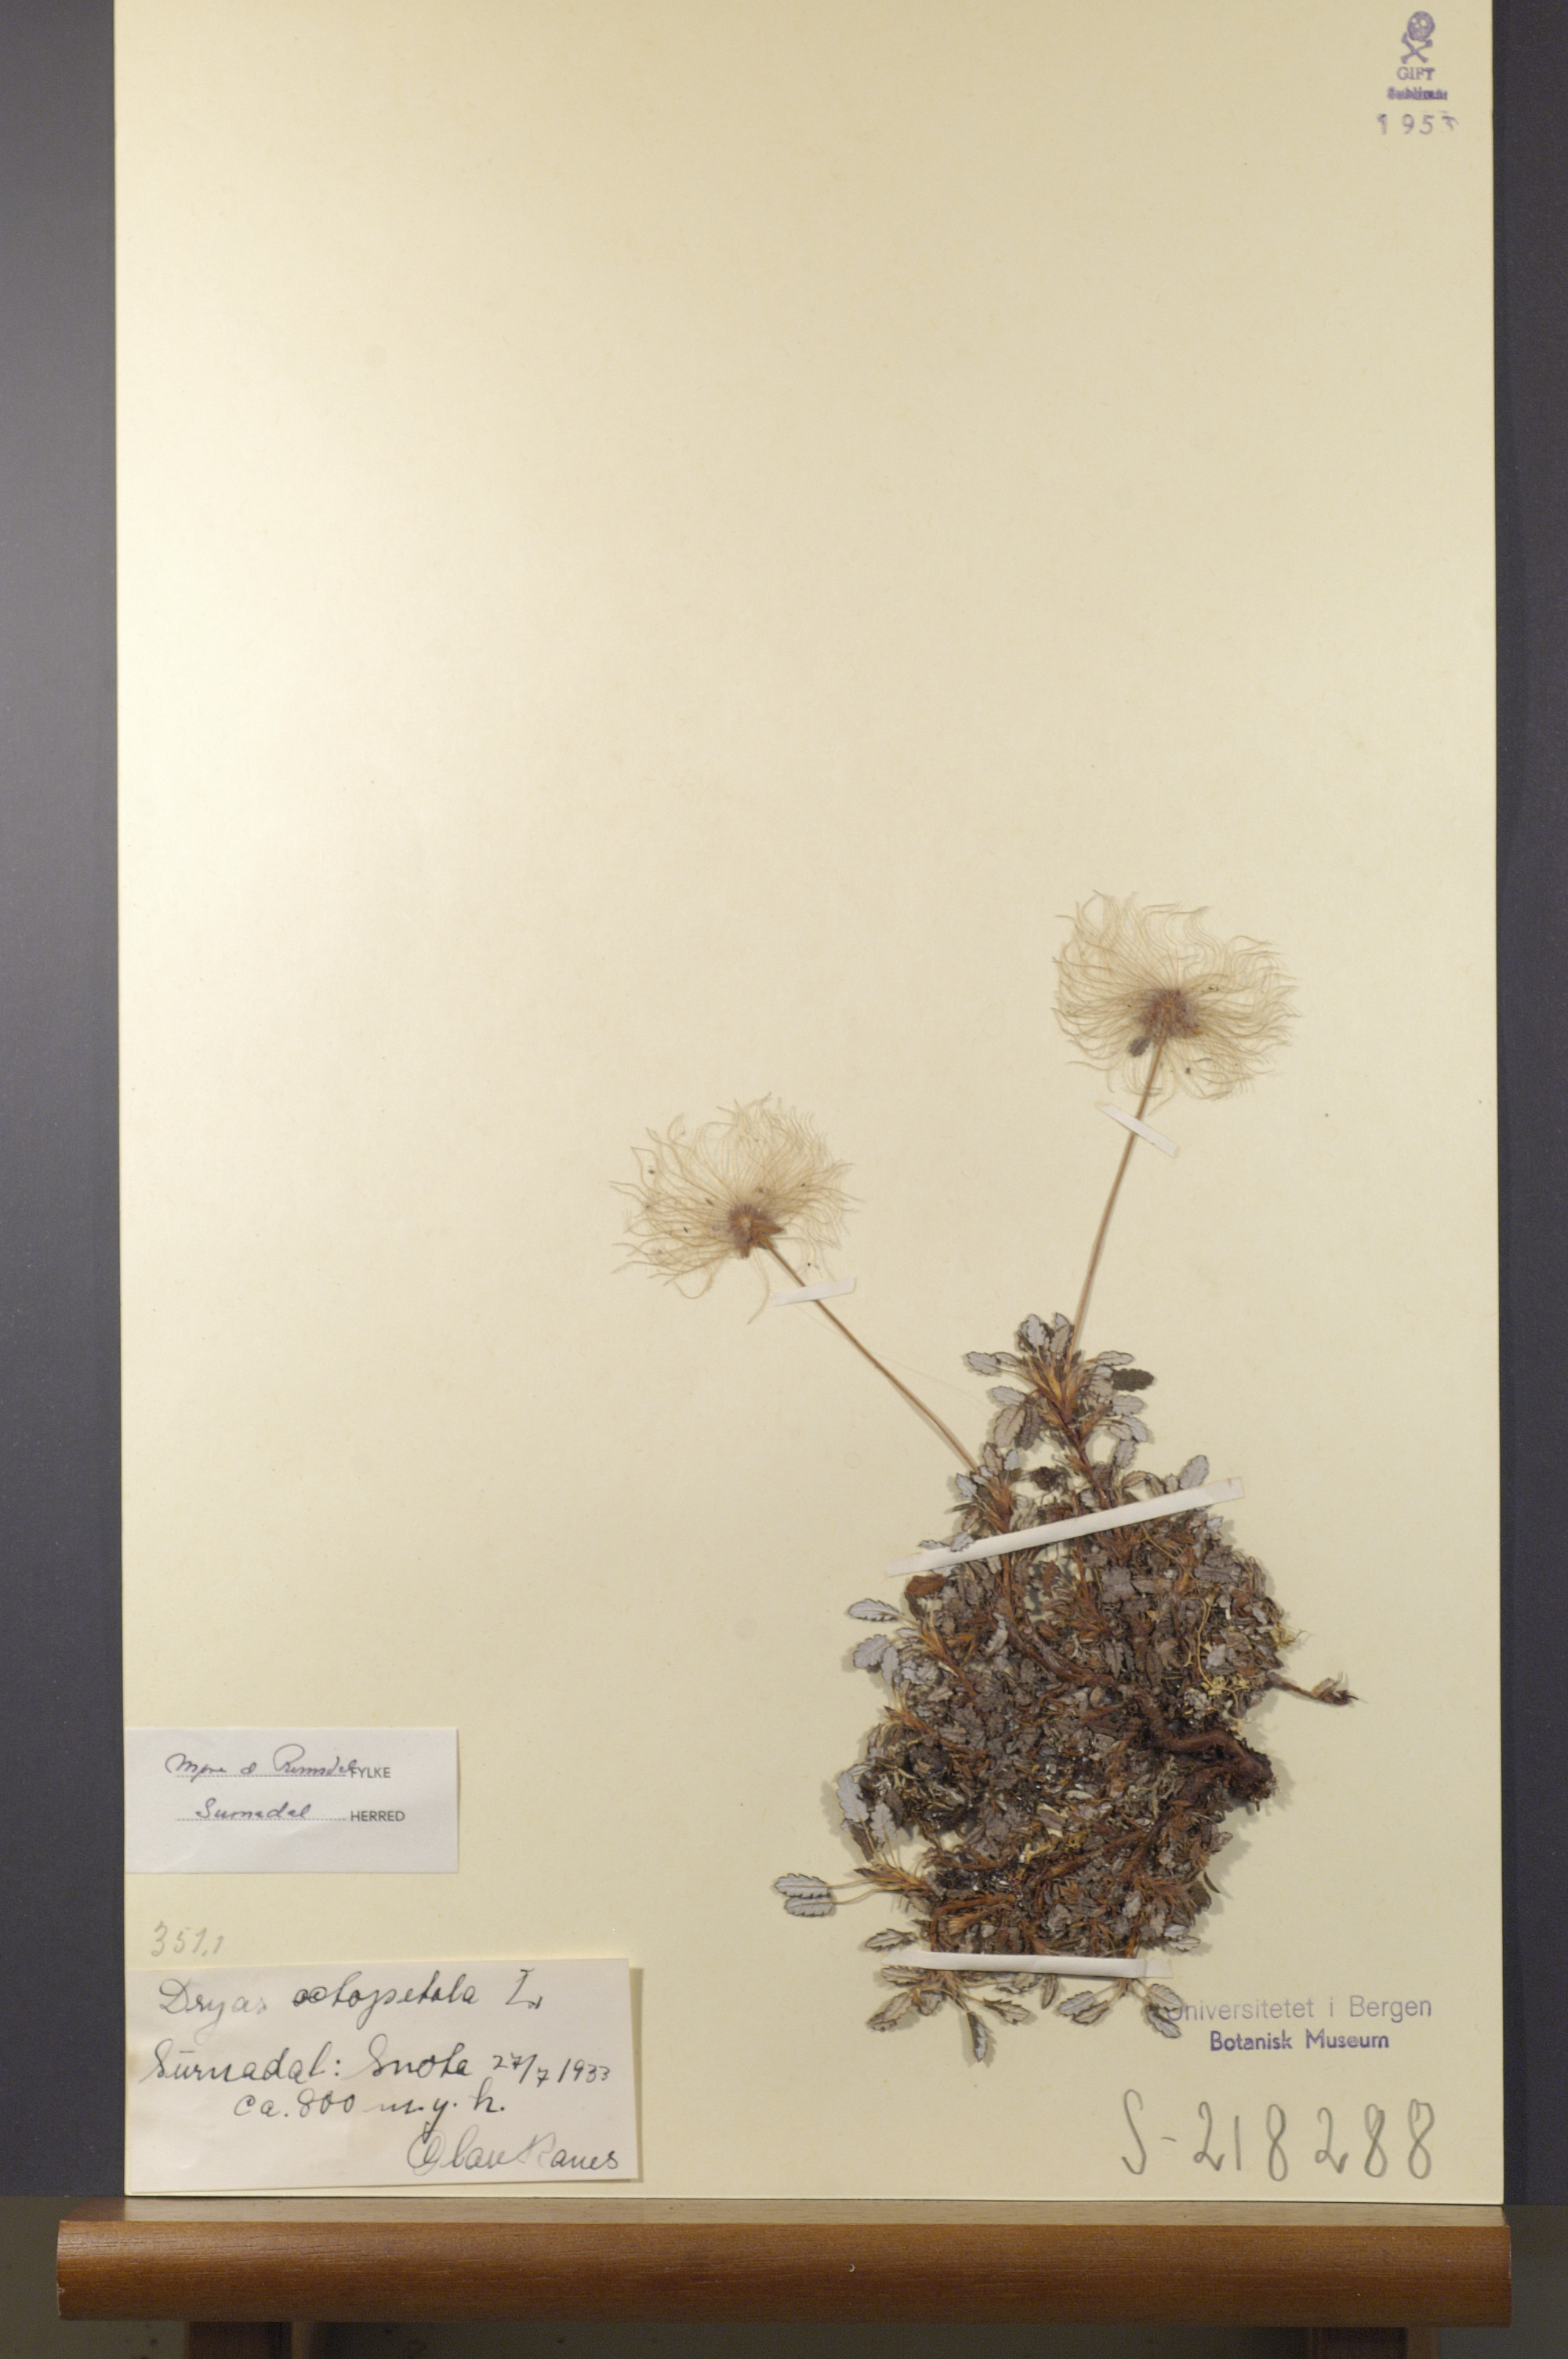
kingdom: Plantae
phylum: Tracheophyta
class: Magnoliopsida
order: Rosales
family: Rosaceae
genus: Dryas
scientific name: Dryas octopetala
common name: Eight-petal mountain-avens
